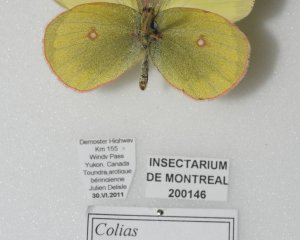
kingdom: Animalia
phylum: Arthropoda
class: Insecta
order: Lepidoptera
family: Pieridae
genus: Colias
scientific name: Colias pelidne
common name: Pelidne Sulphur
